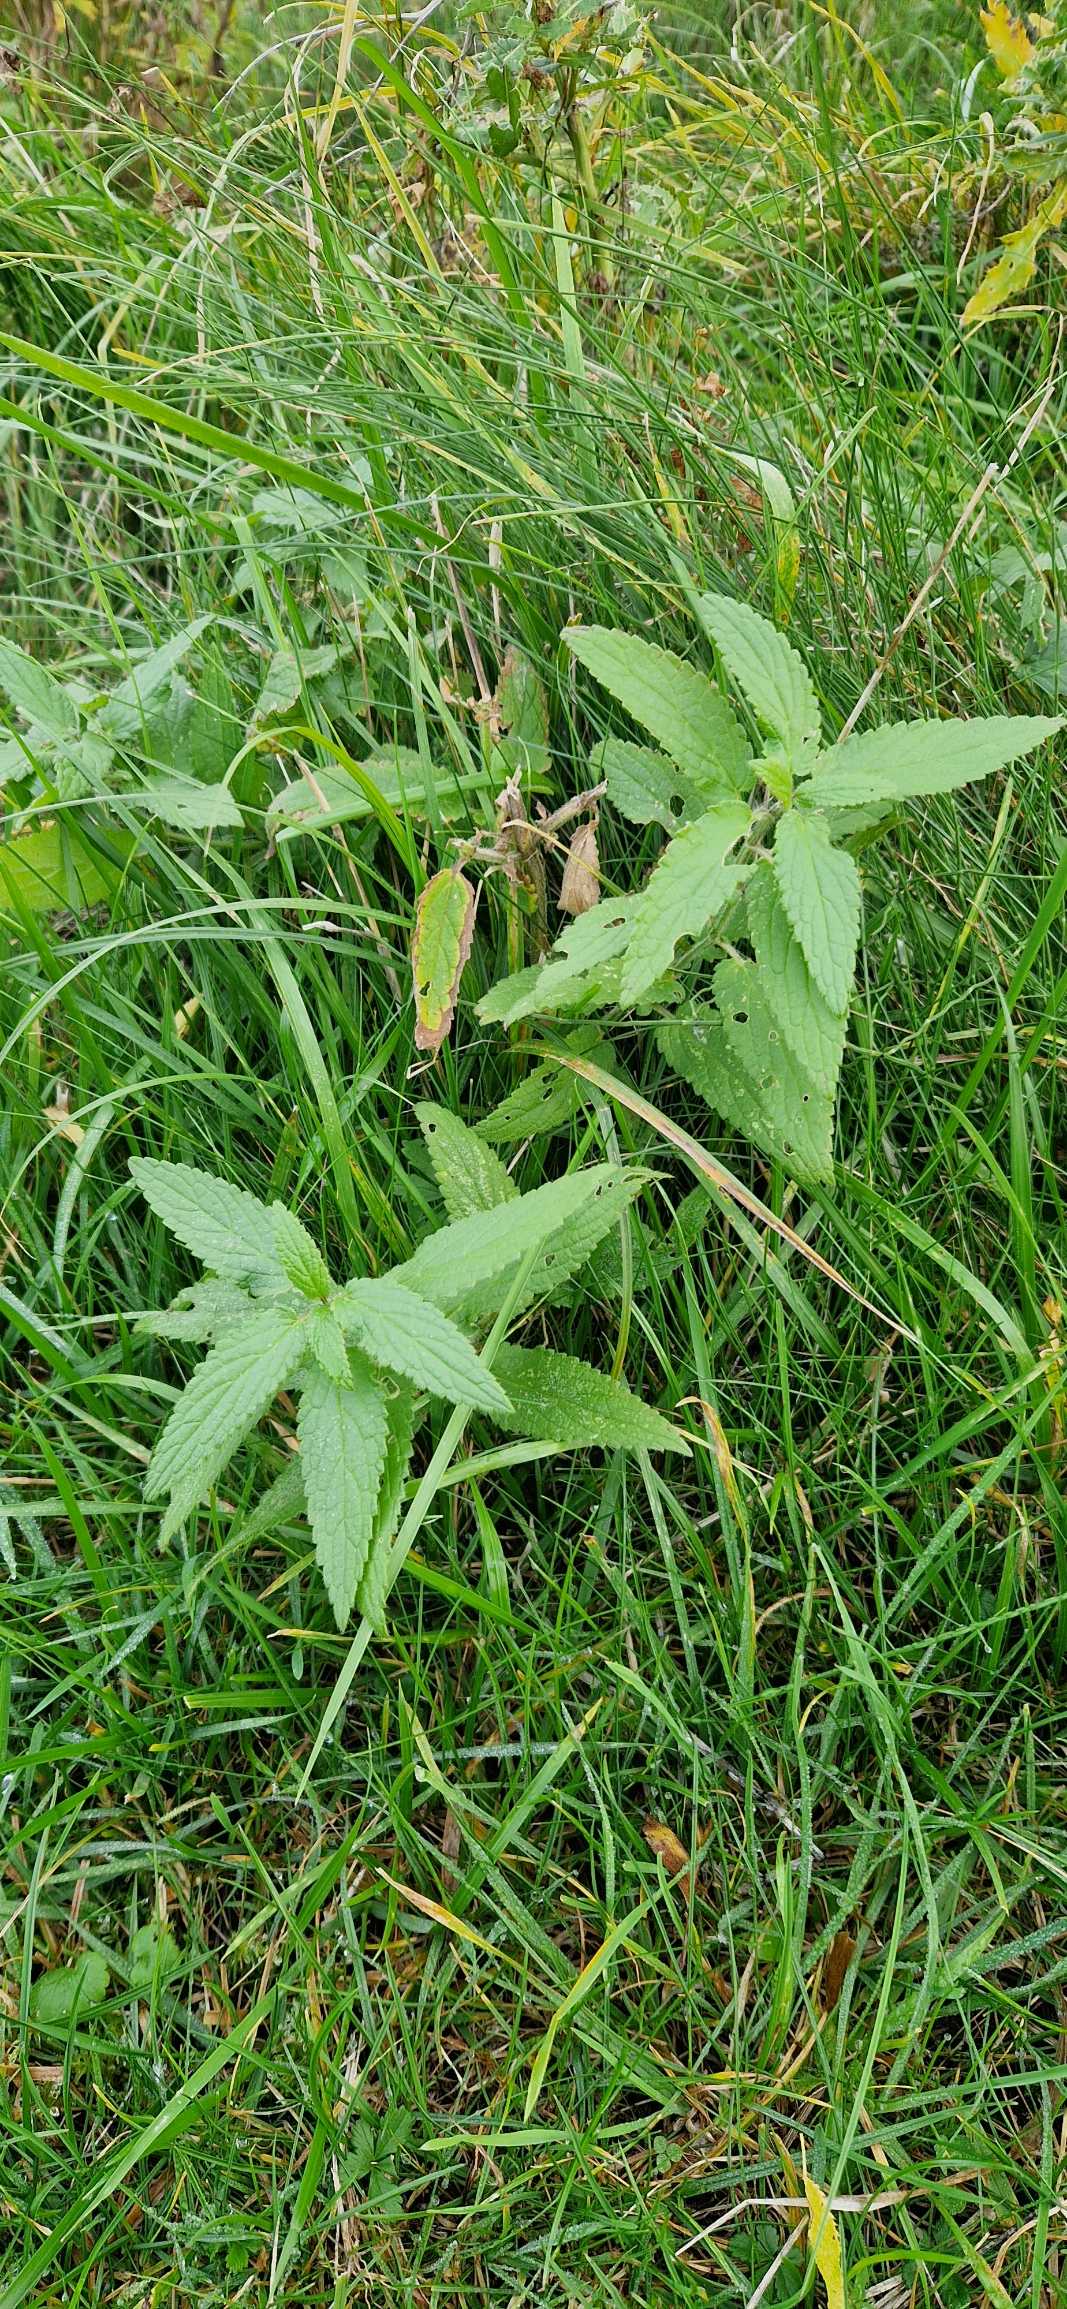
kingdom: Plantae
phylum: Tracheophyta
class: Magnoliopsida
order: Lamiales
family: Lamiaceae
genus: Stachys
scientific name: Stachys
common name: Hybrid-galtetand
